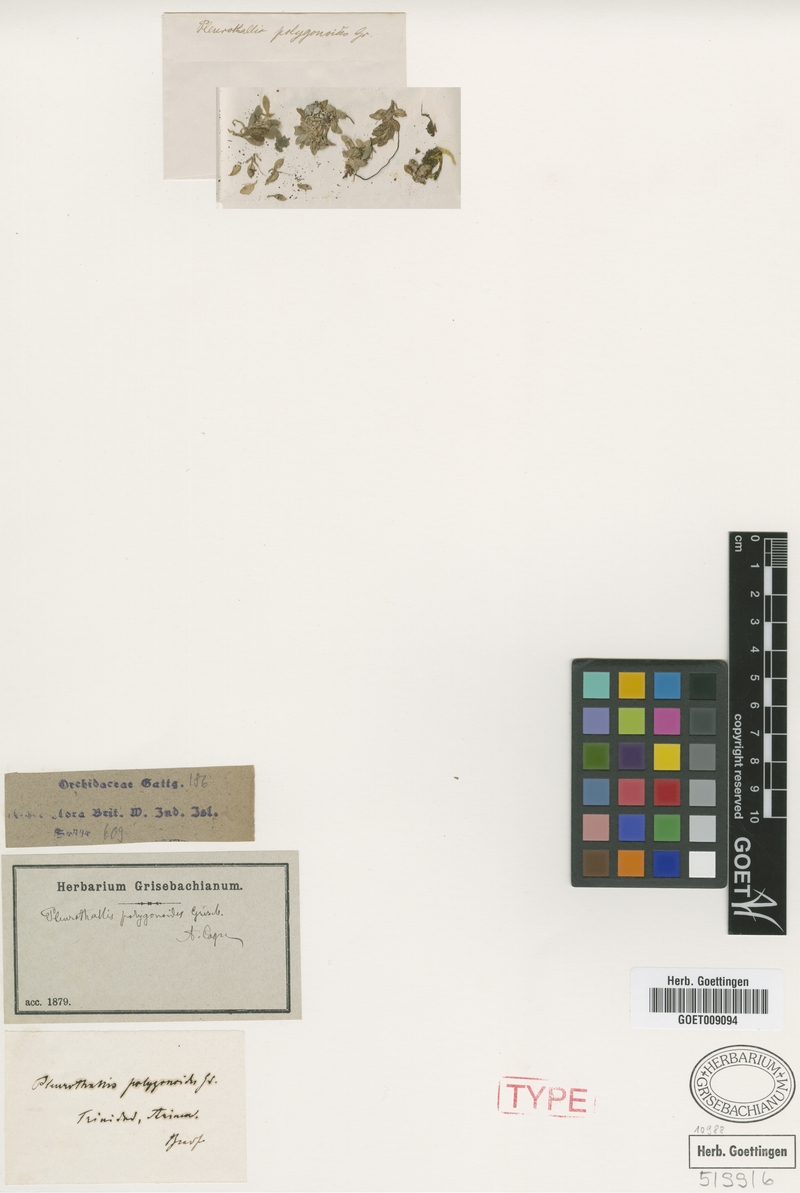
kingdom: Plantae
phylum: Tracheophyta
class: Liliopsida
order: Asparagales
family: Orchidaceae
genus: Anathallis
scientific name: Anathallis polygonoides
